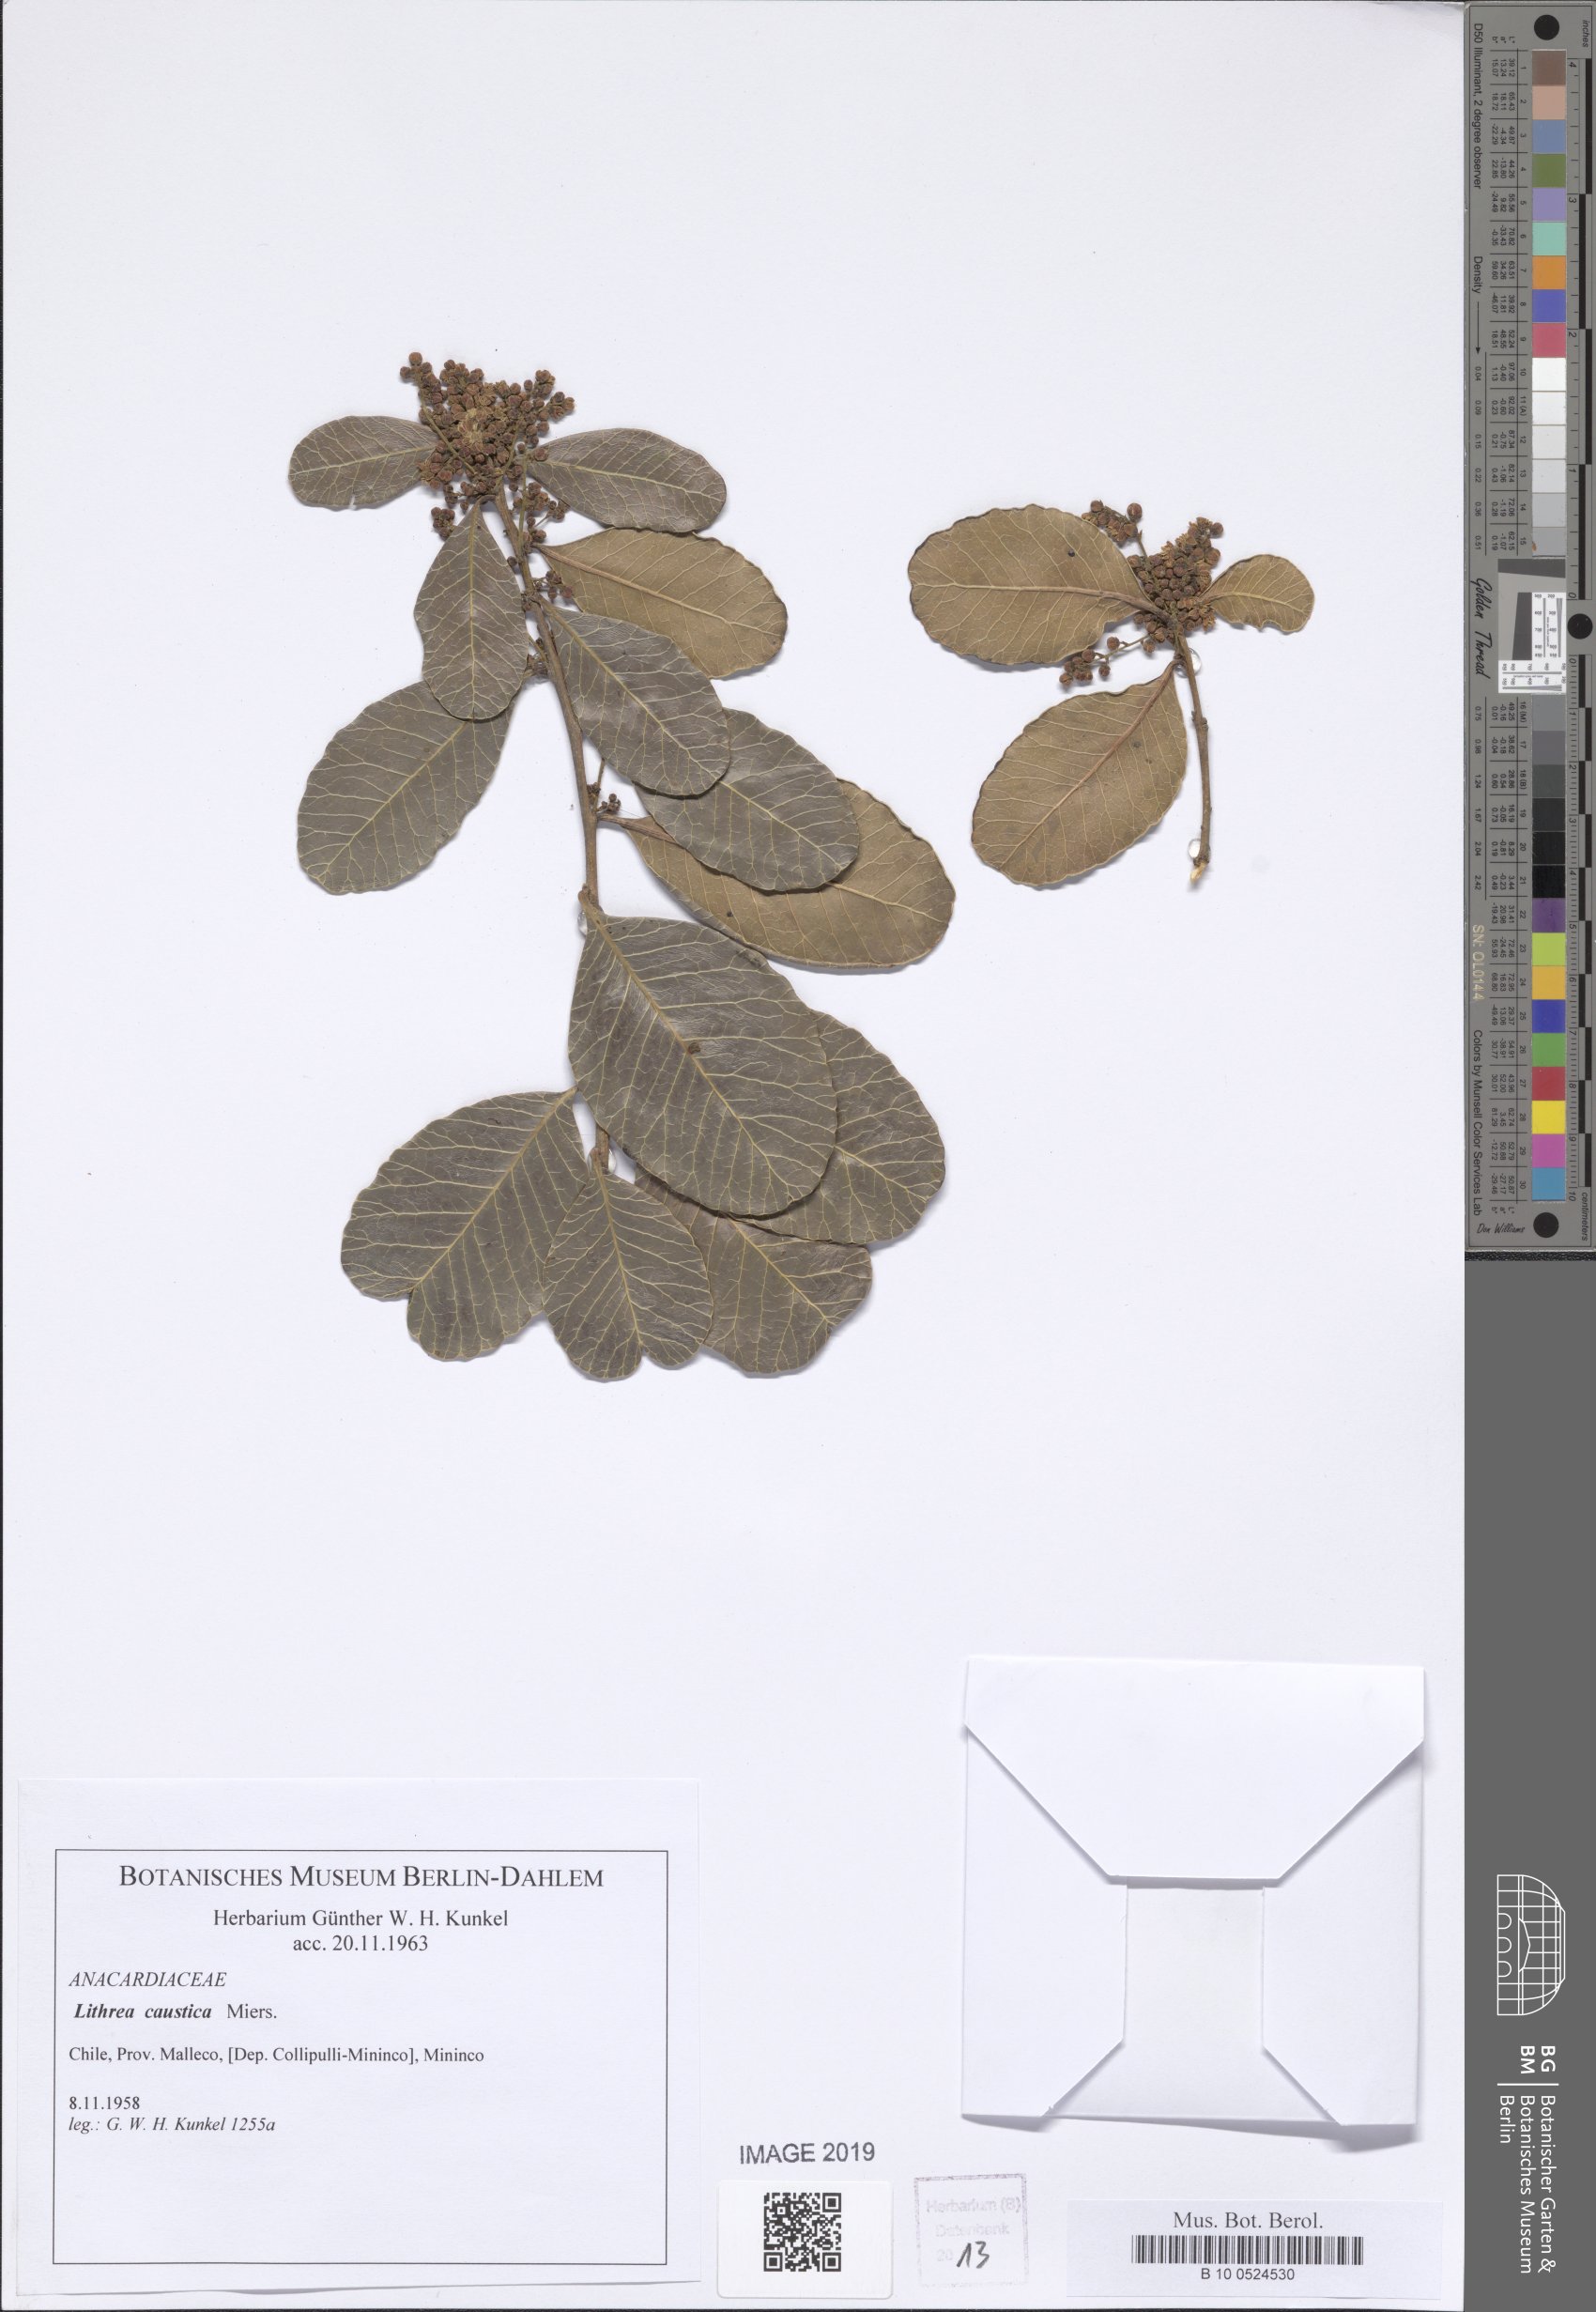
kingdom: Plantae
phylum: Tracheophyta
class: Magnoliopsida
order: Sapindales
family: Anacardiaceae
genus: Lithraea
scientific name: Lithraea Lithrea caustica
